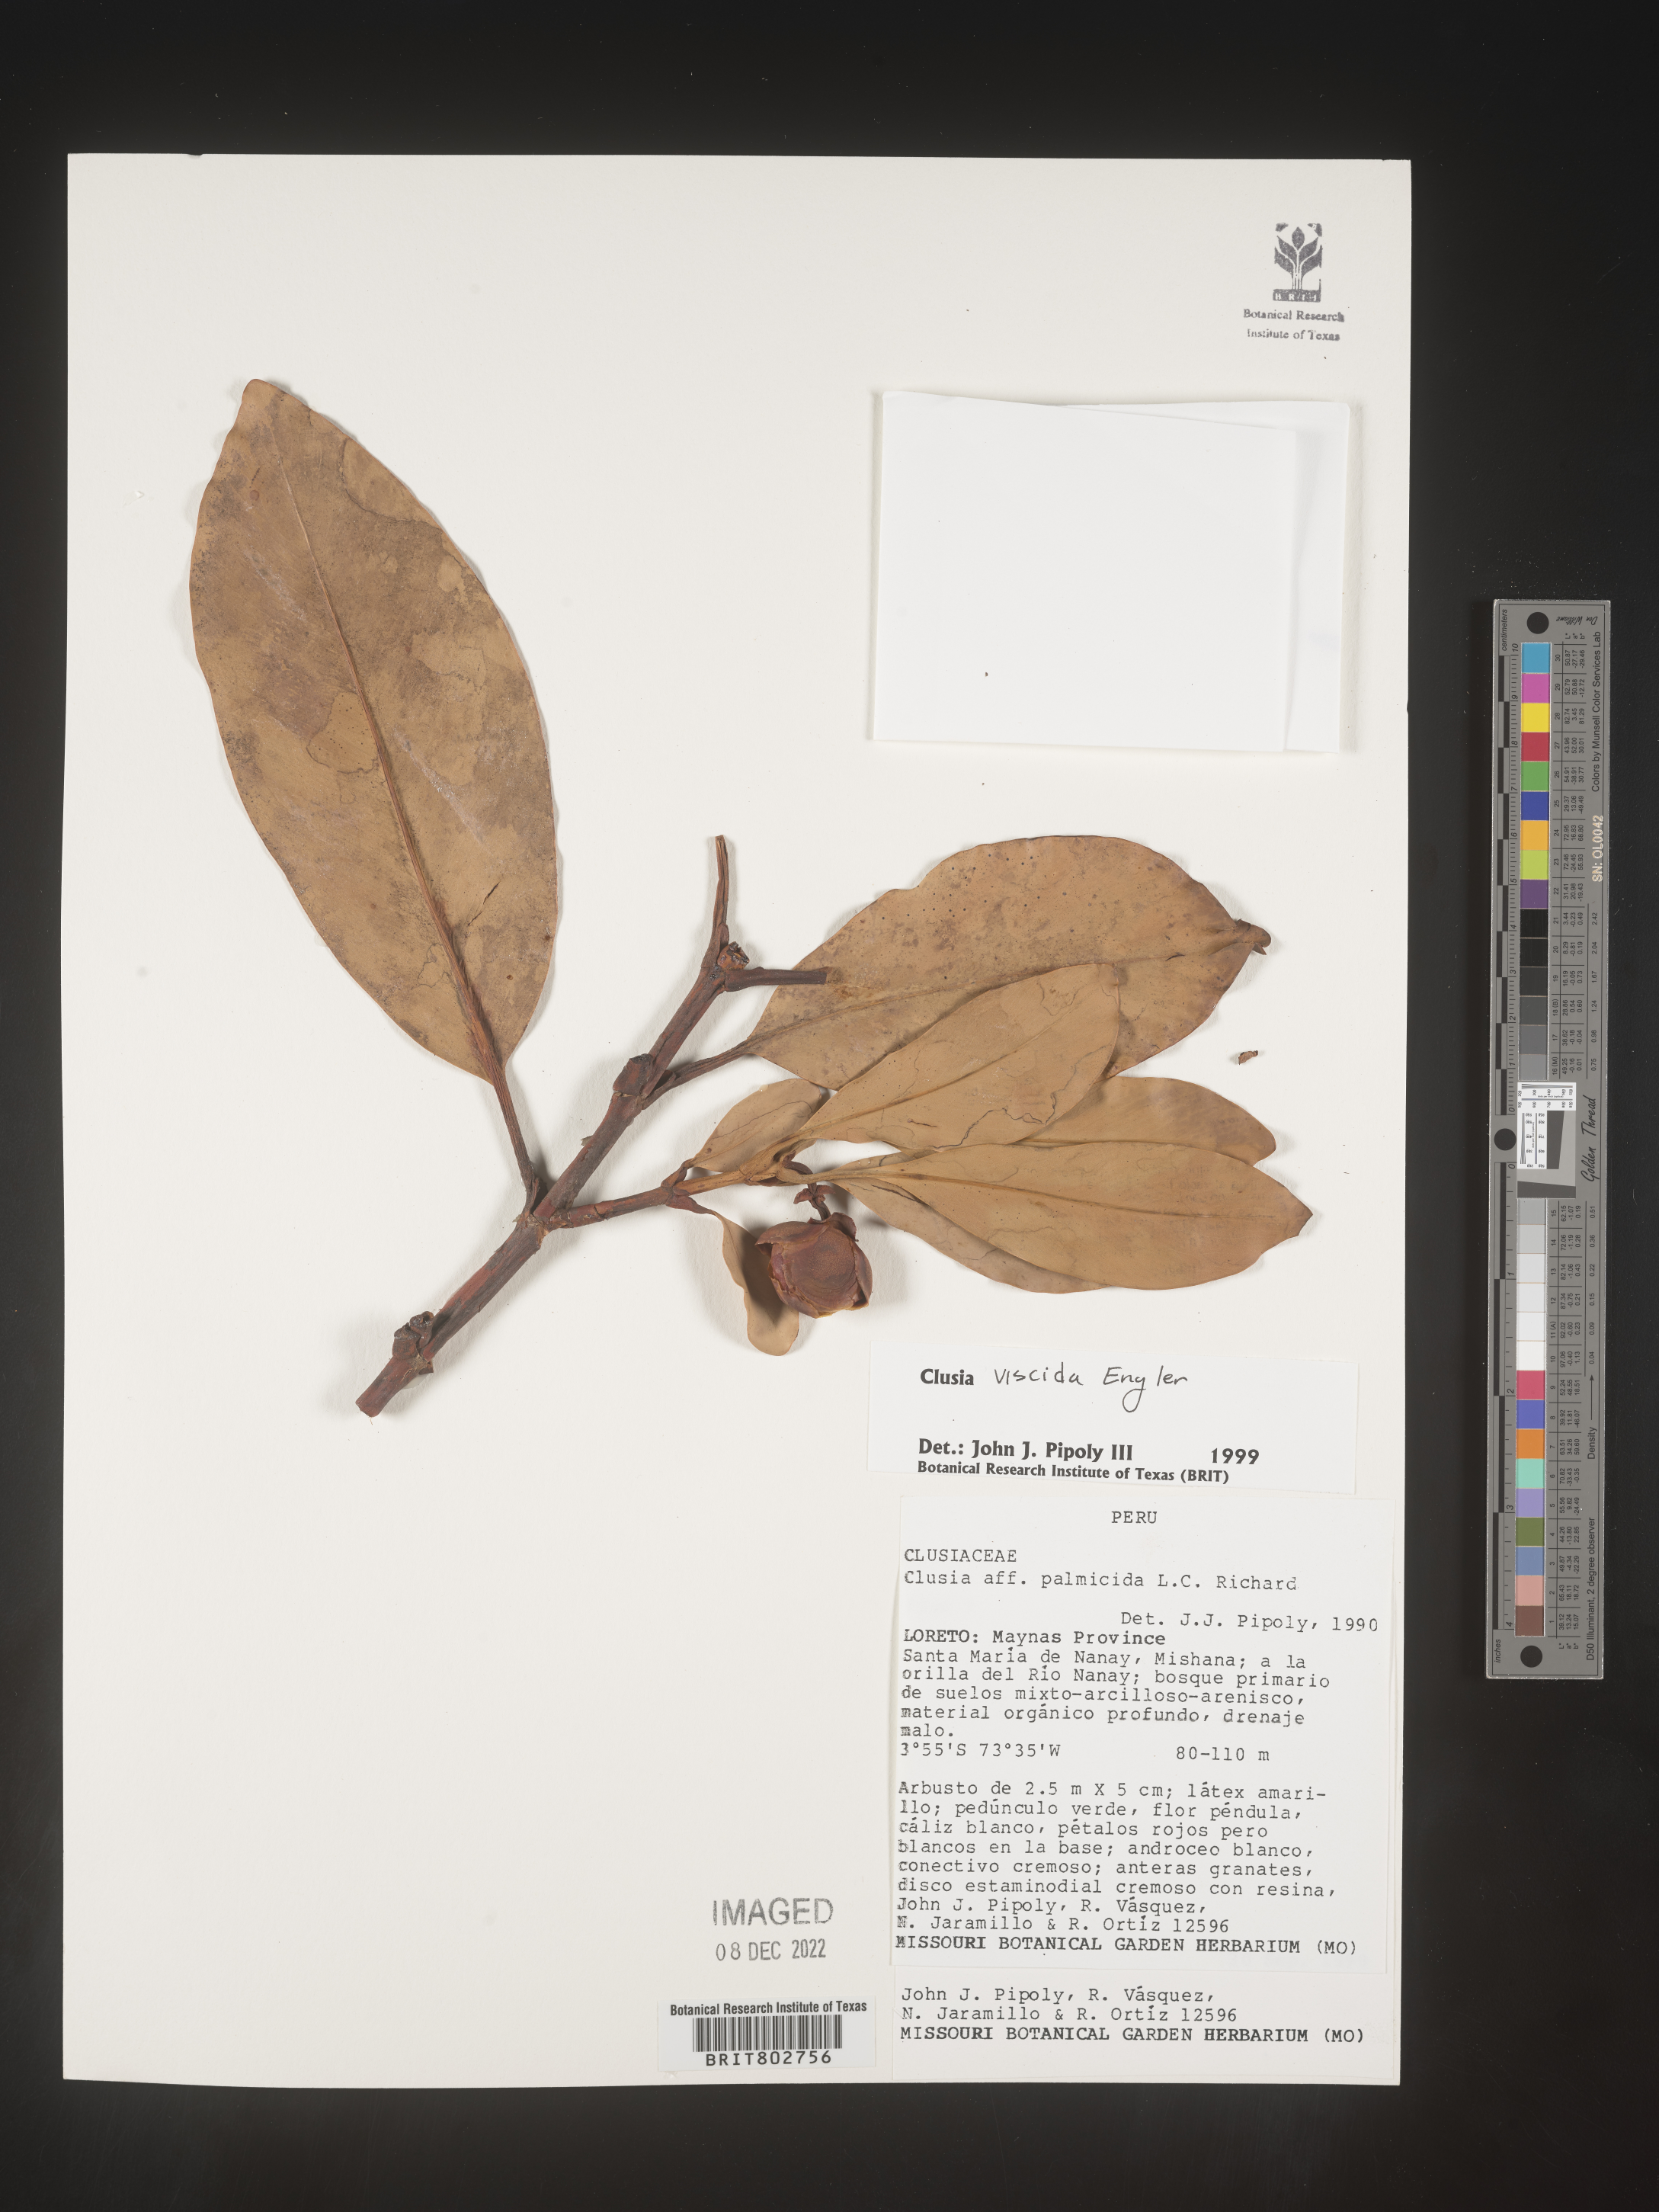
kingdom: Plantae
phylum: Tracheophyta
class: Magnoliopsida
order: Malpighiales
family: Clusiaceae
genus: Clusia
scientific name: Clusia viscida
